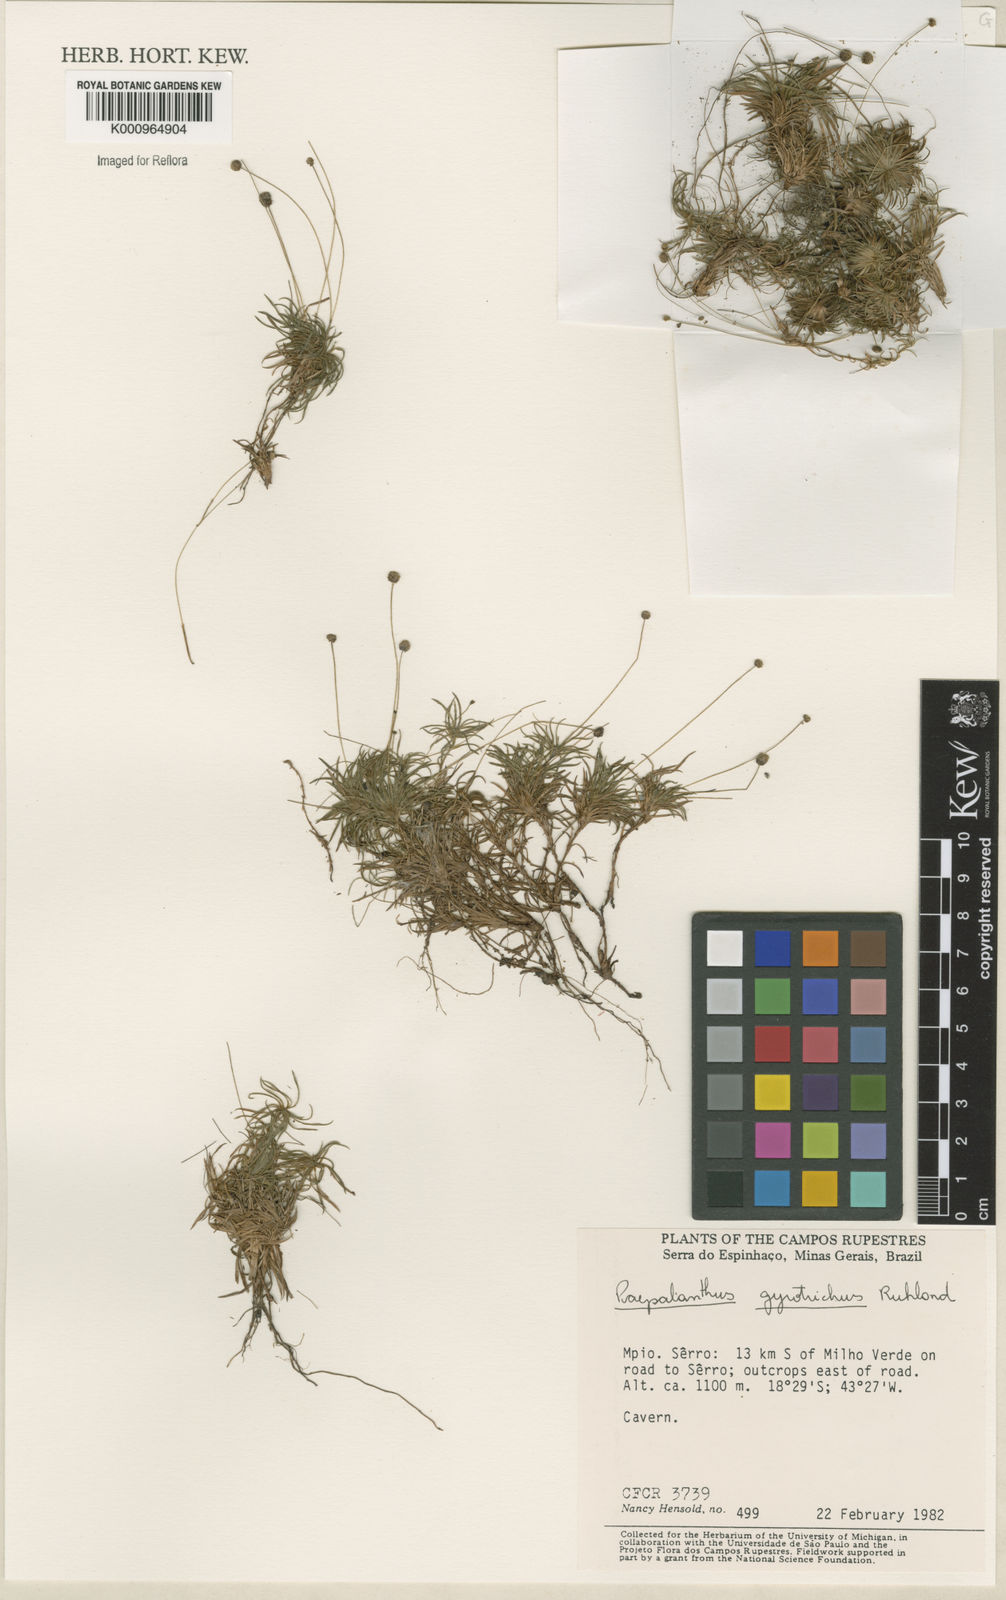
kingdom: Plantae
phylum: Tracheophyta
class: Liliopsida
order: Poales
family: Eriocaulaceae
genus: Paepalanthus
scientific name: Paepalanthus gyrotrichus
